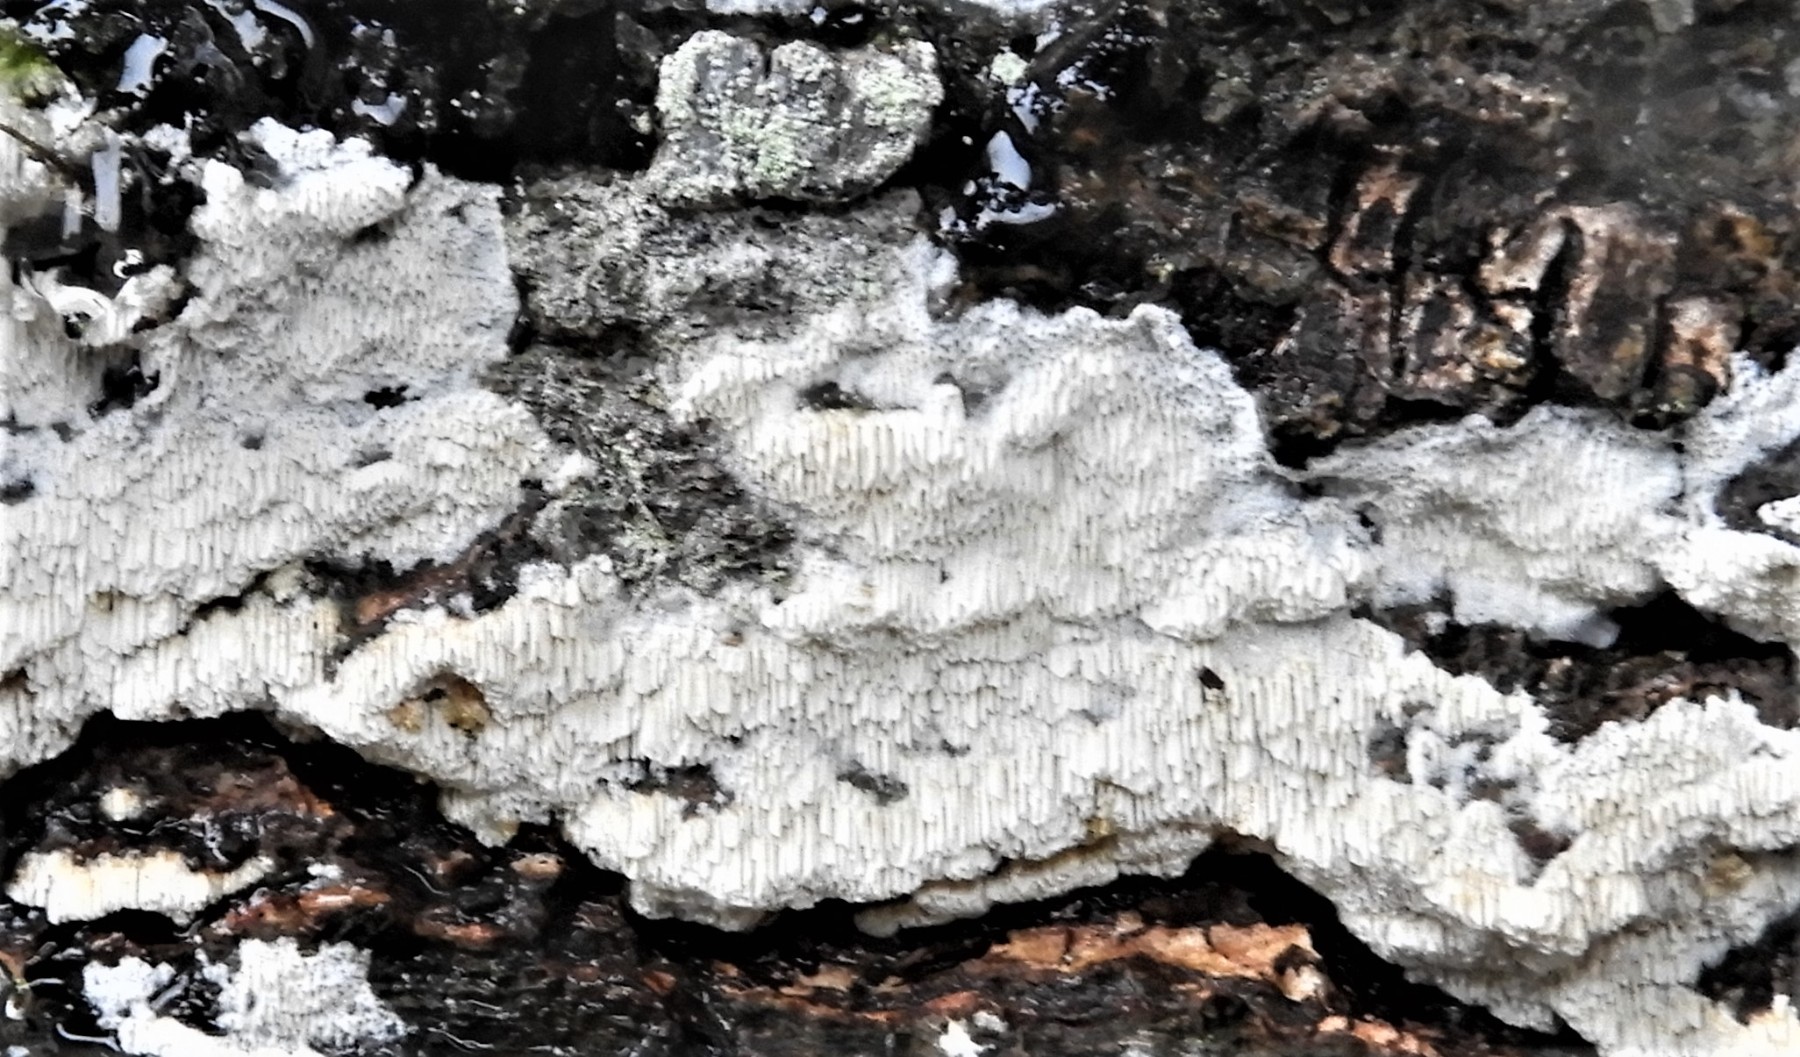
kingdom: Fungi
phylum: Basidiomycota
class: Agaricomycetes
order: Polyporales
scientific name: Polyporales
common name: poresvampordenen
